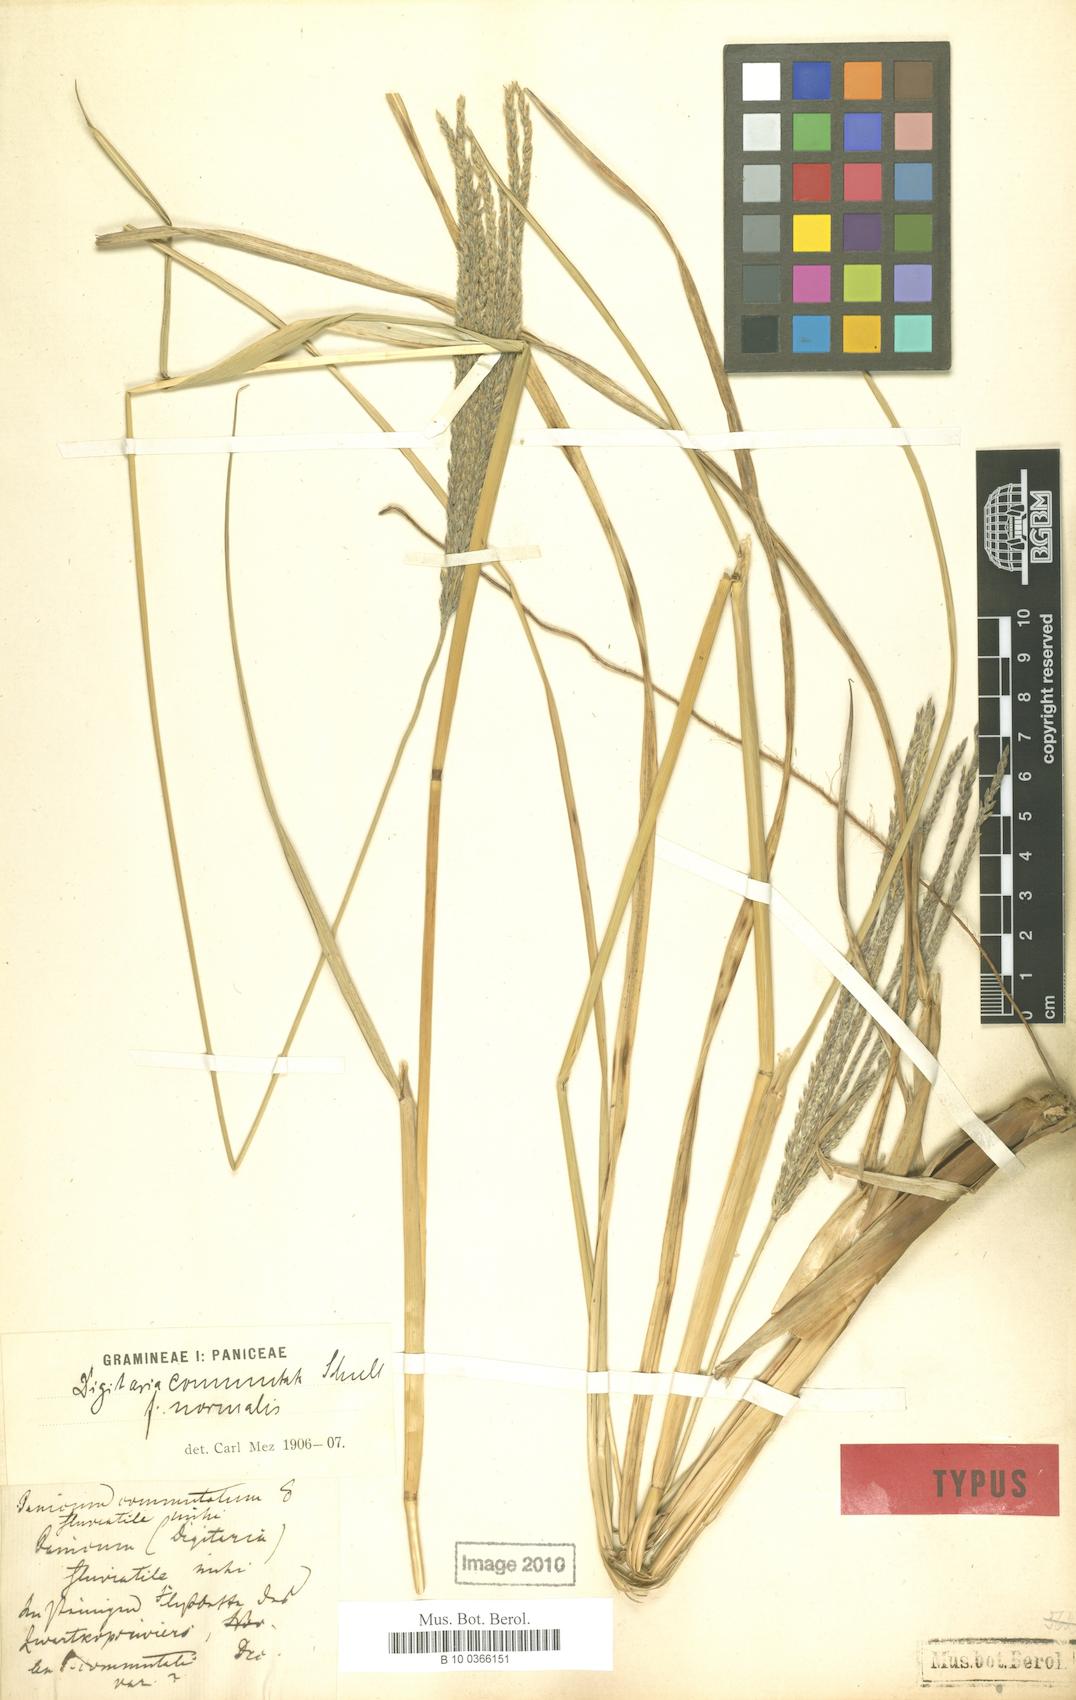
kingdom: Plantae
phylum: Tracheophyta
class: Liliopsida
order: Poales
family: Poaceae
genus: Digitaria
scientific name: Digitaria natalensis
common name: Coast finger grass
